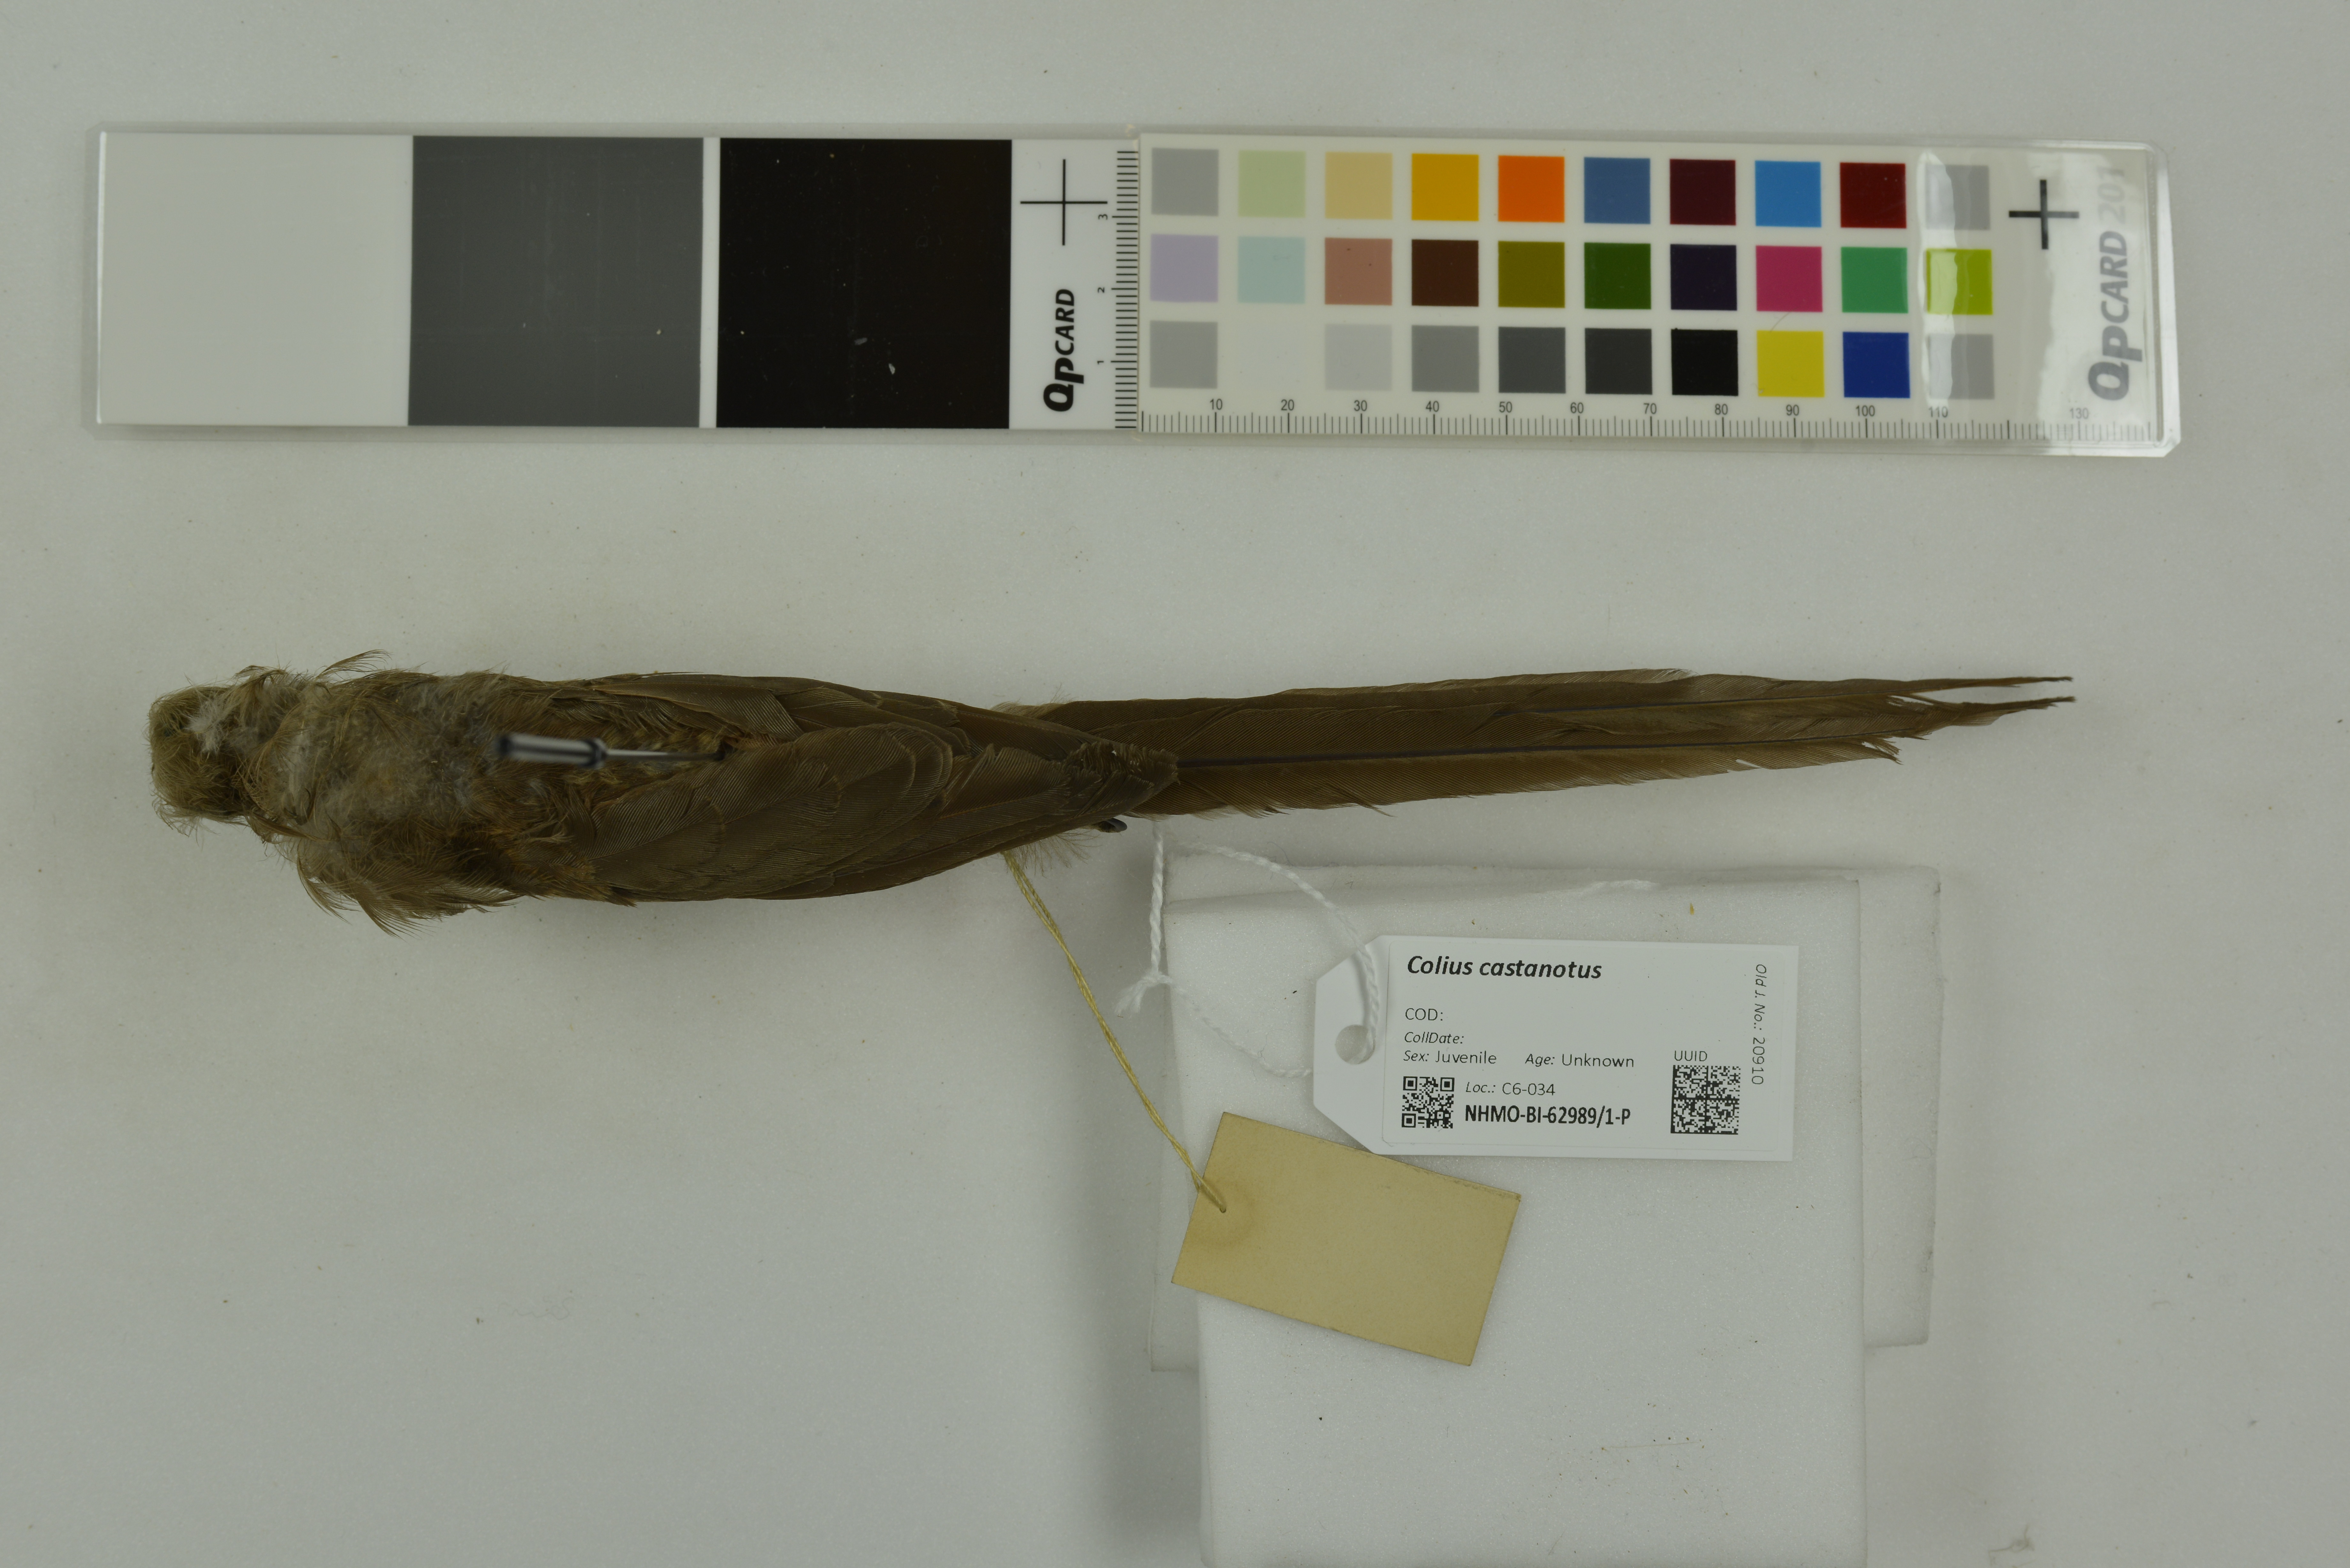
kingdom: Animalia
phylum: Chordata
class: Aves
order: Coliiformes
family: Coliidae
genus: Colius
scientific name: Colius castanotus
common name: Red-backed mousebird
